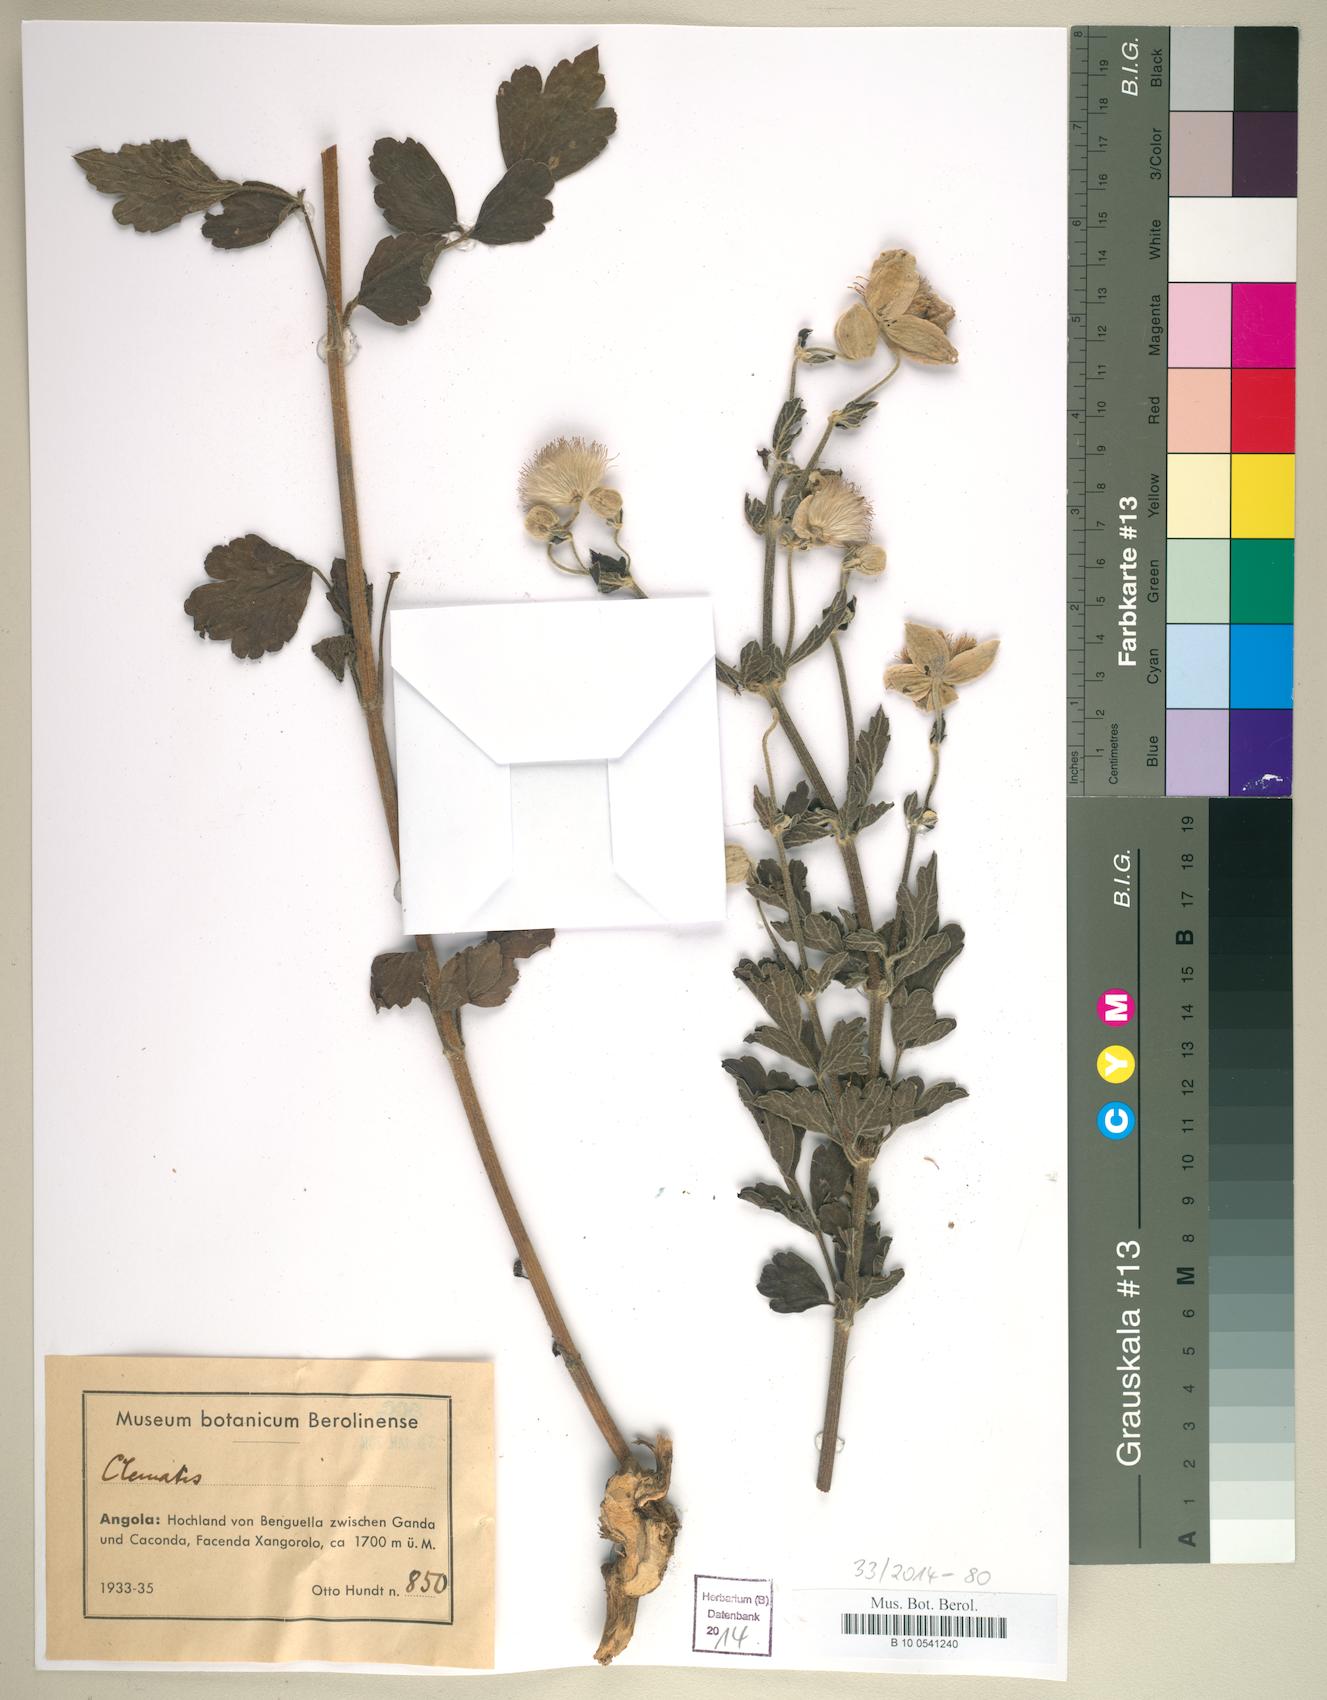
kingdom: Plantae
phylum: Tracheophyta
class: Magnoliopsida
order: Ranunculales
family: Ranunculaceae
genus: Clematis
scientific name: Clematis
